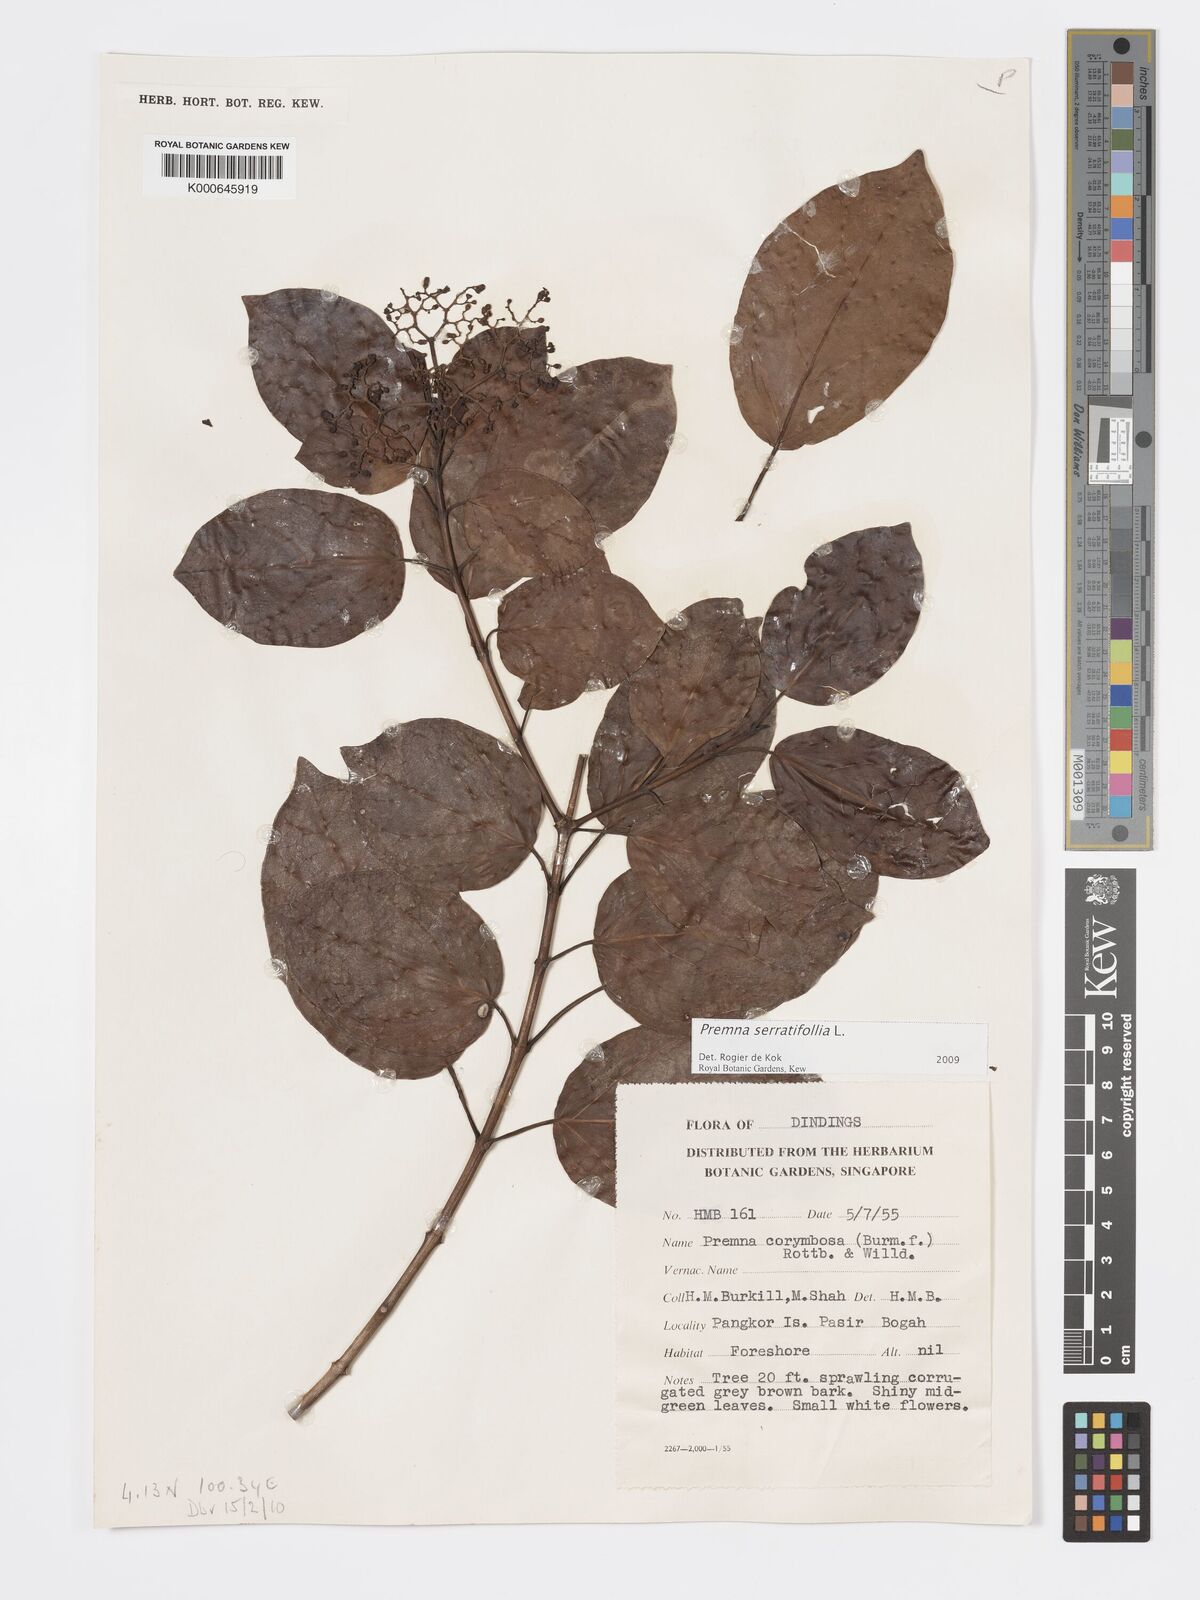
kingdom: Plantae
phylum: Tracheophyta
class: Magnoliopsida
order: Lamiales
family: Lamiaceae
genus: Premna
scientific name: Premna serratifolia
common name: Bastard guelder
